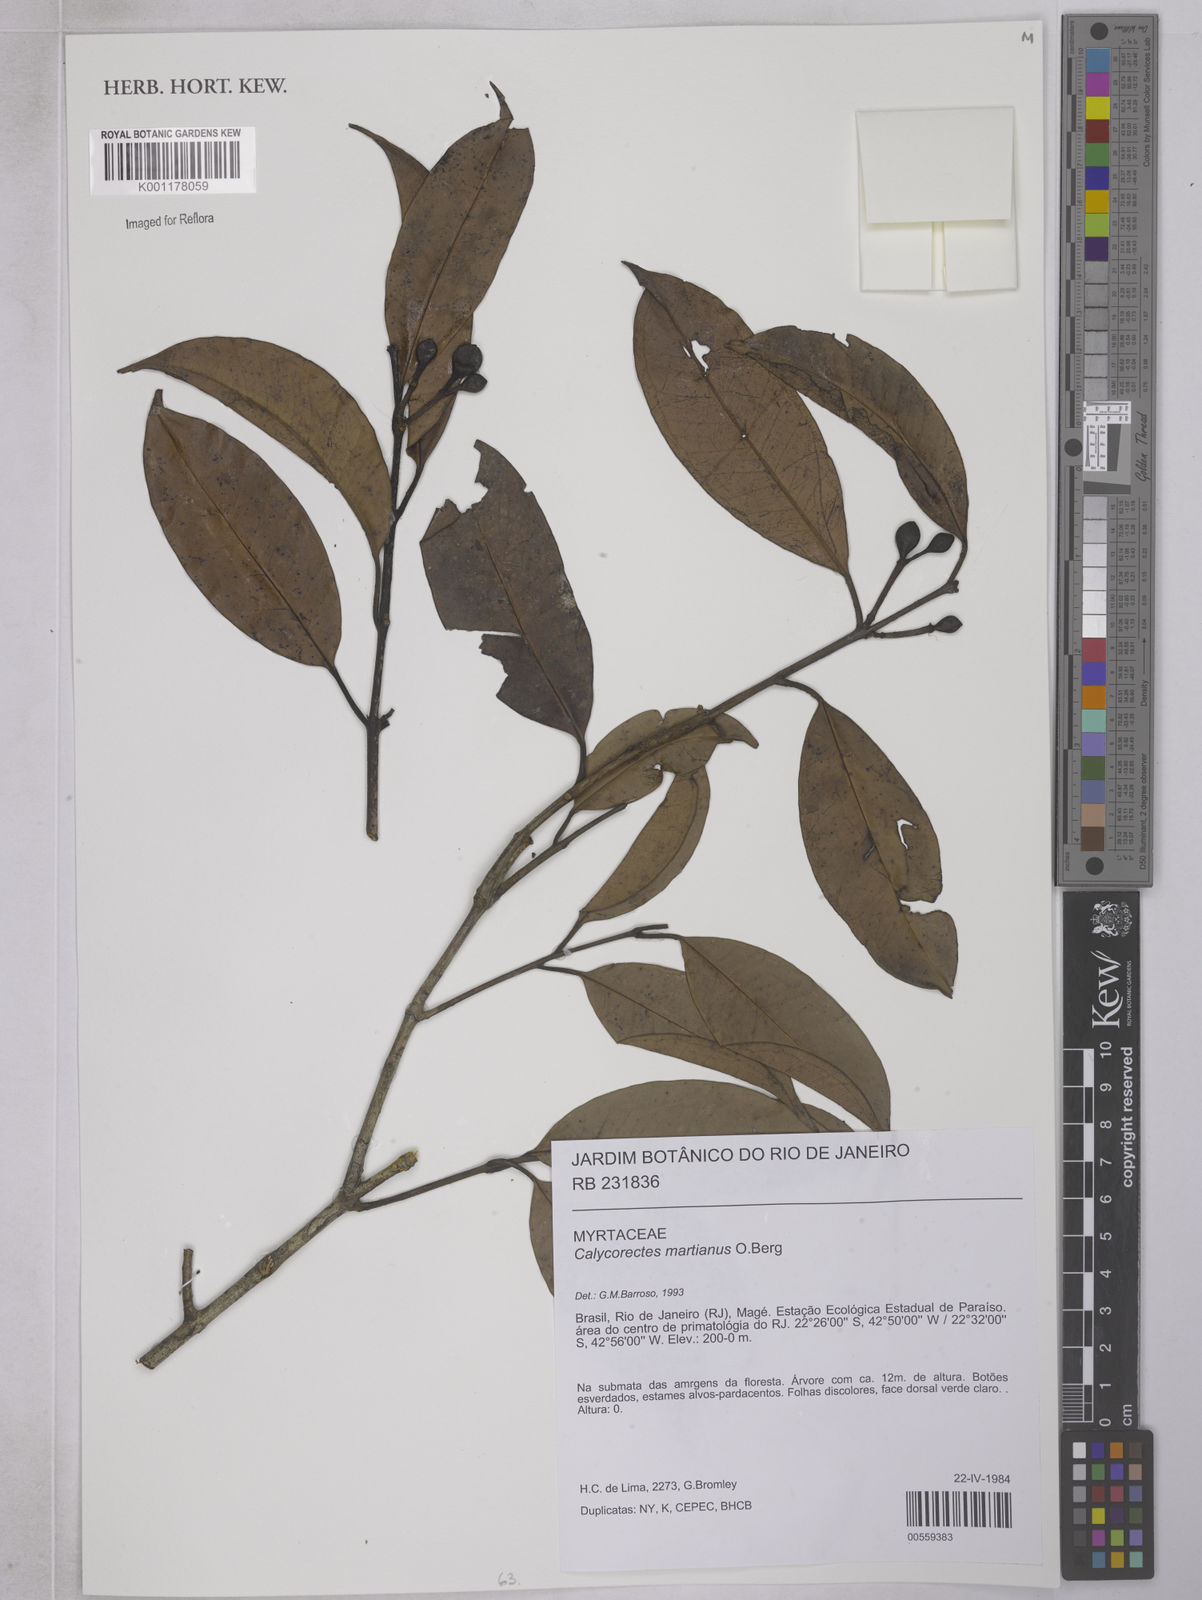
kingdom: Plantae
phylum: Tracheophyta
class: Magnoliopsida
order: Myrtales
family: Myrtaceae
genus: Eugenia
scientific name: Eugenia
